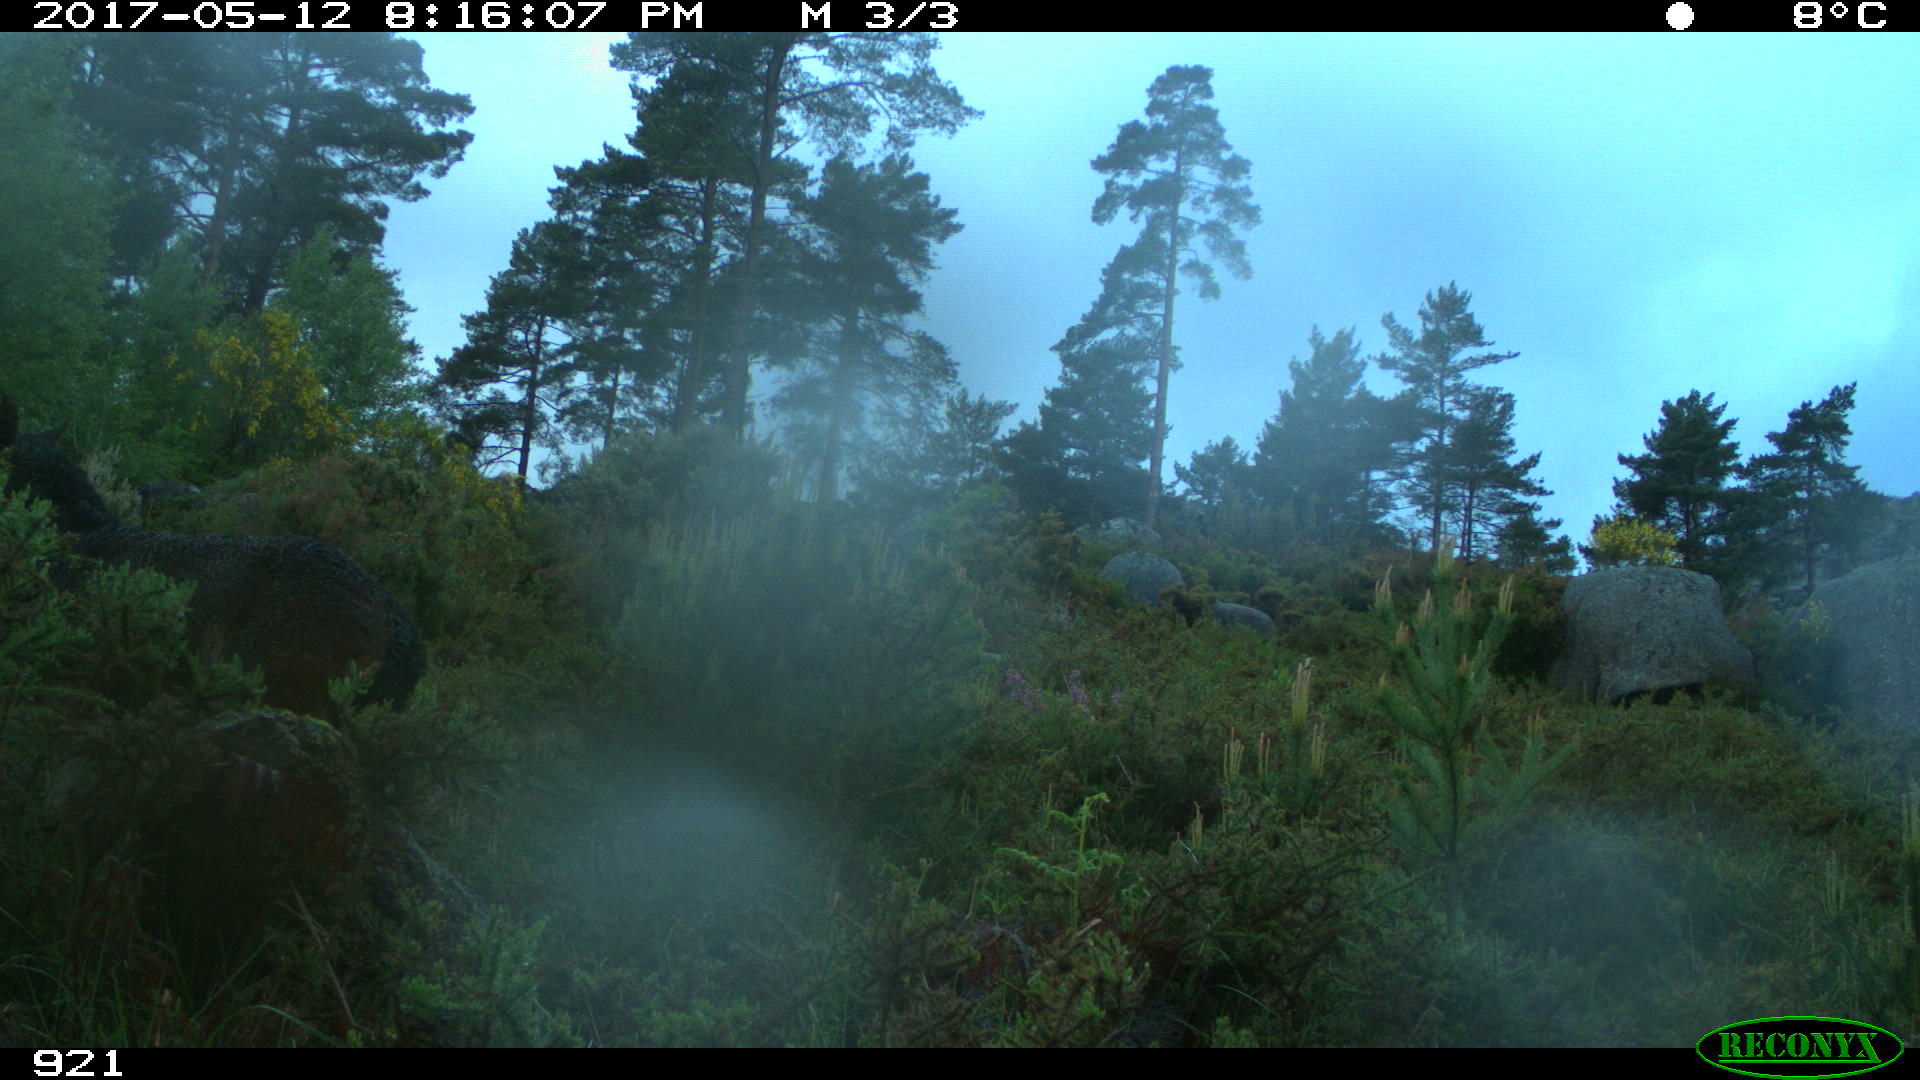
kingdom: Animalia
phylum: Chordata
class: Mammalia
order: Perissodactyla
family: Equidae
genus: Equus
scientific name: Equus caballus
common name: Horse
